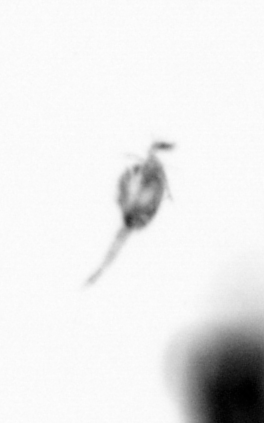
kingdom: Animalia
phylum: Arthropoda
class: Copepoda
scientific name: Copepoda
